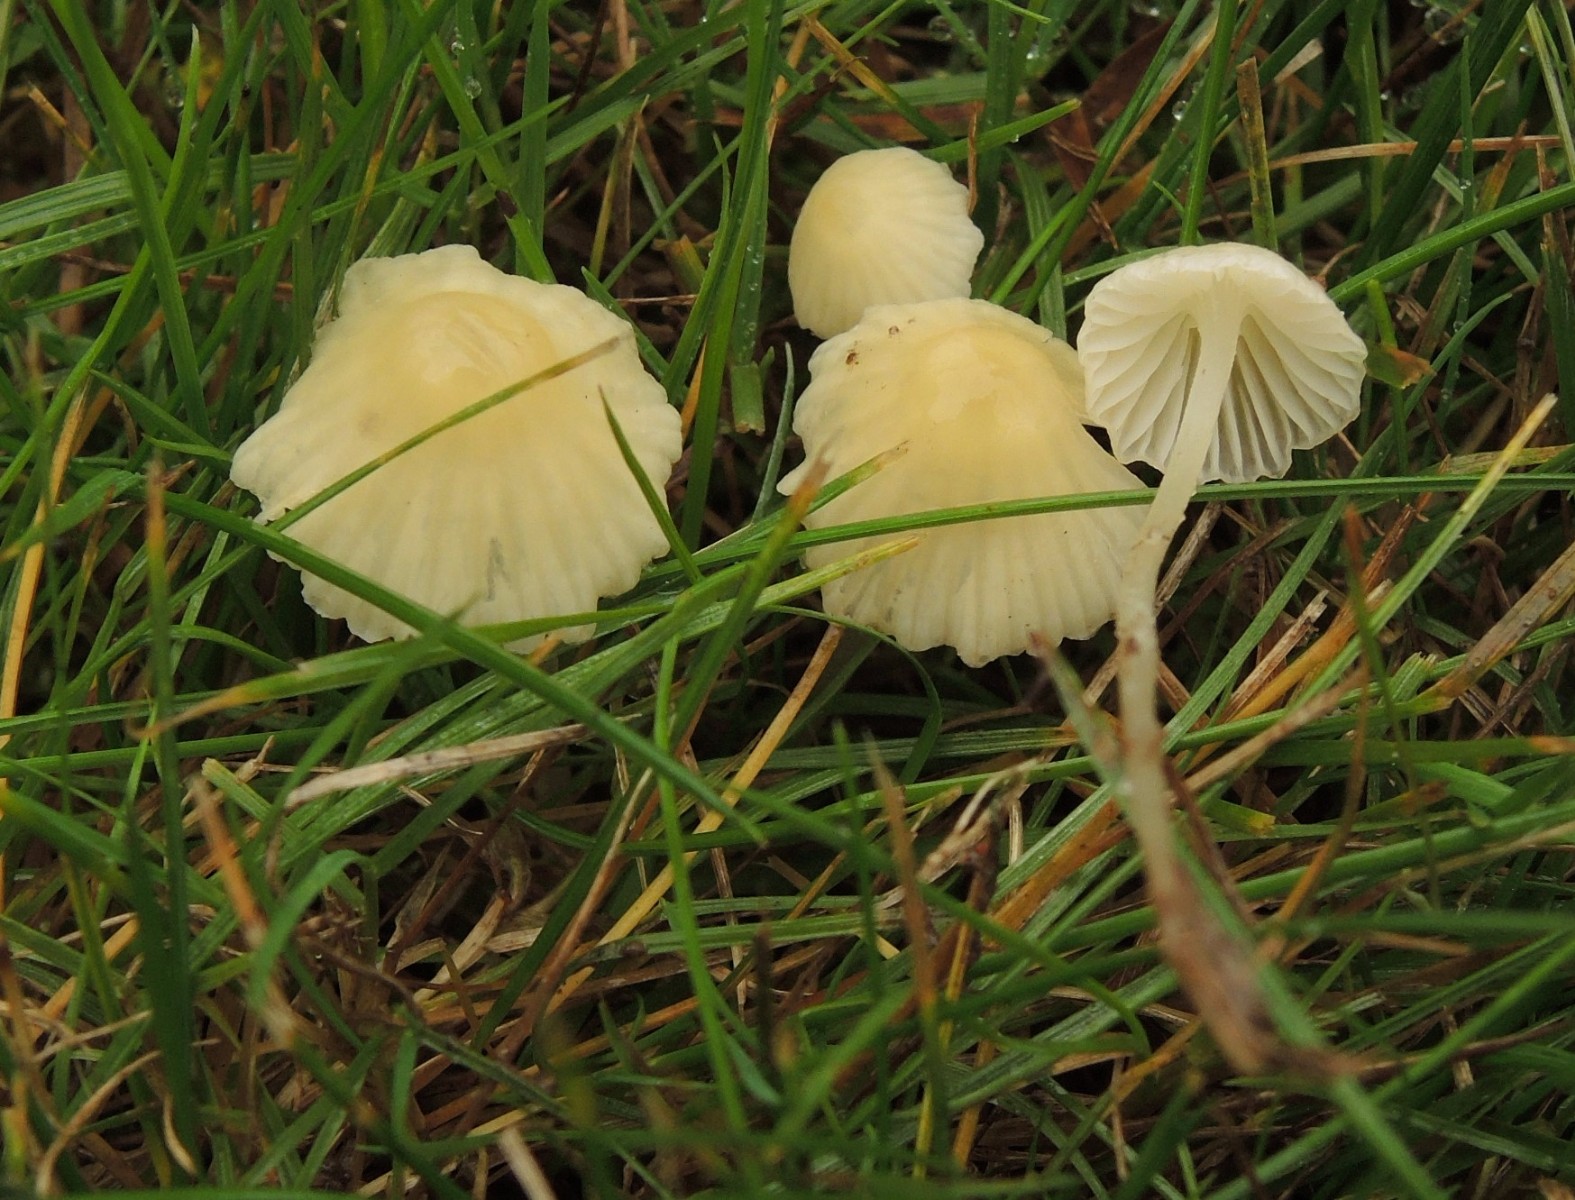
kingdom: Fungi
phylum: Basidiomycota
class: Agaricomycetes
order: Agaricales
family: Mycenaceae
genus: Atheniella
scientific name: Atheniella flavoalba
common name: gulhvid huesvamp
